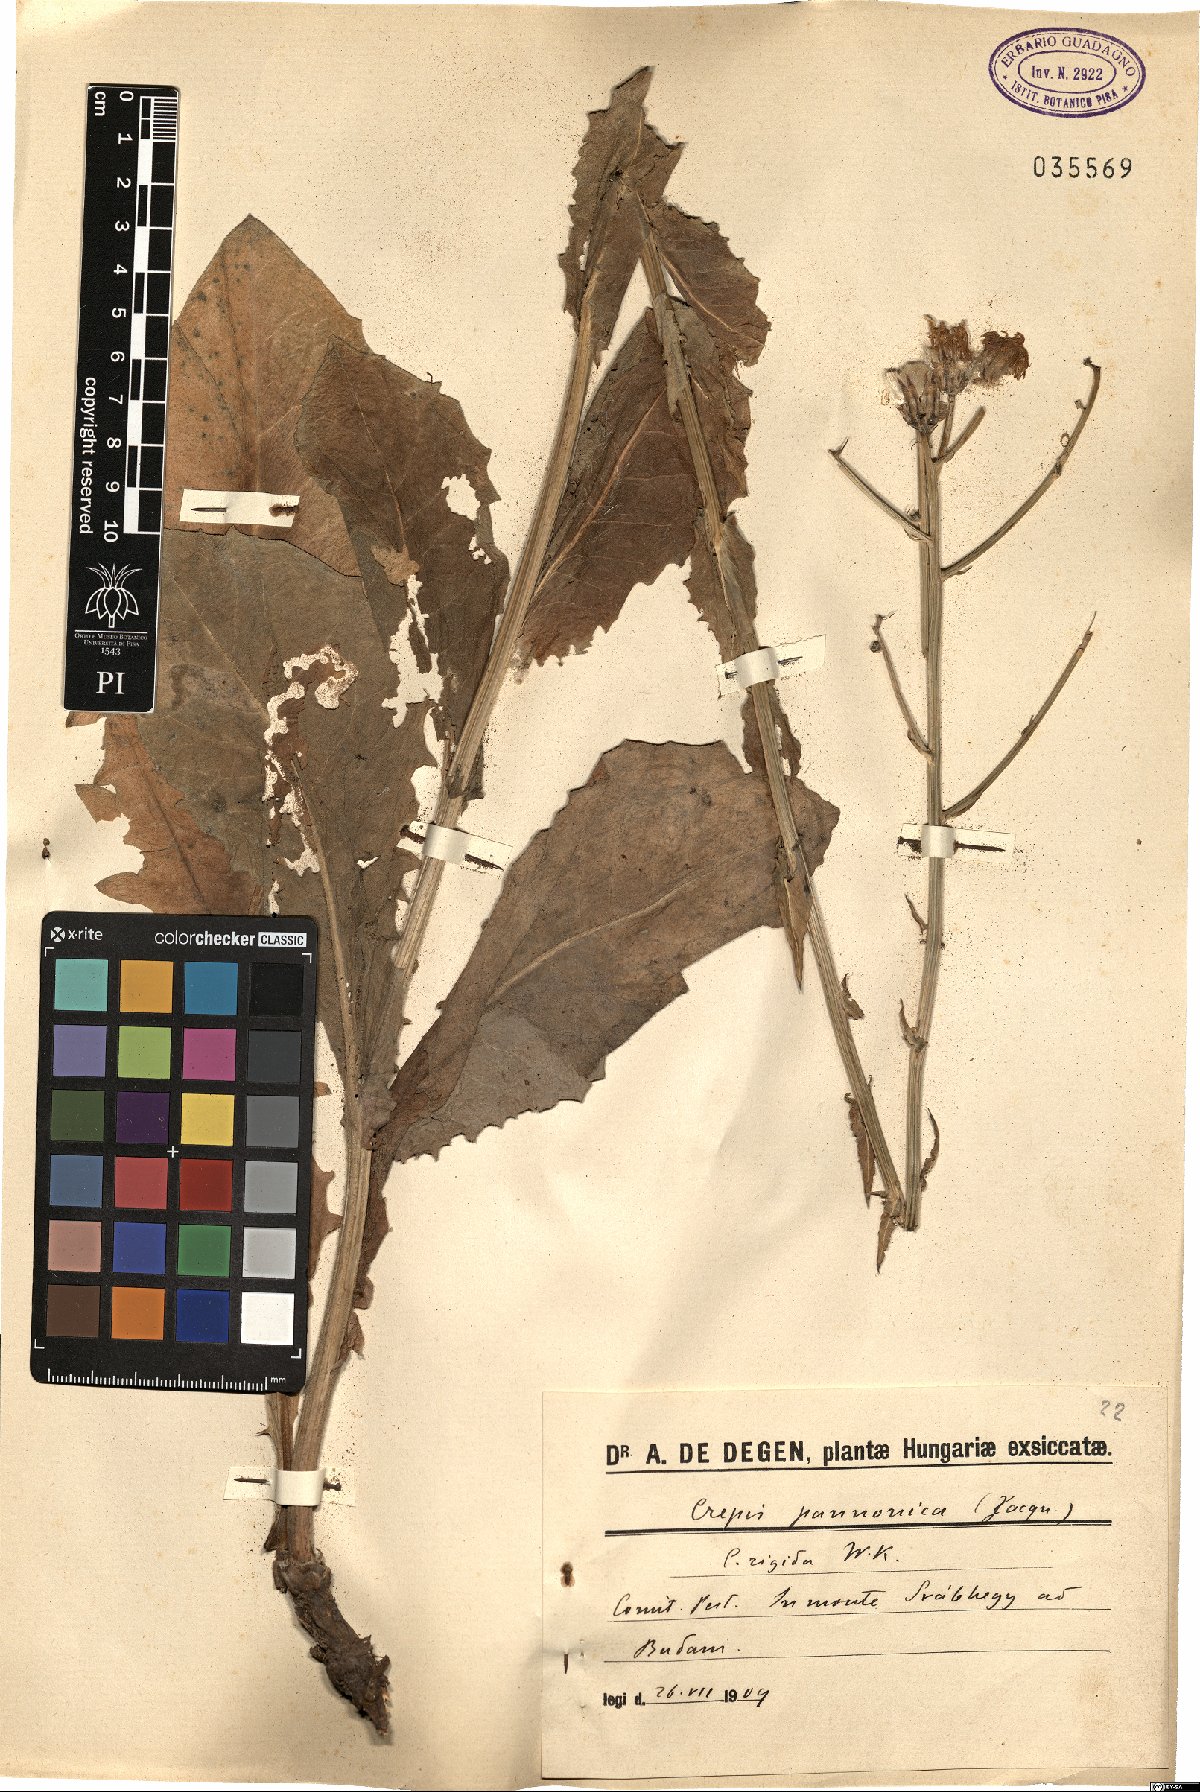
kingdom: Plantae
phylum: Tracheophyta
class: Magnoliopsida
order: Asterales
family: Asteraceae
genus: Crepis
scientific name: Crepis pannonica
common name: Pasture hawksbeard
